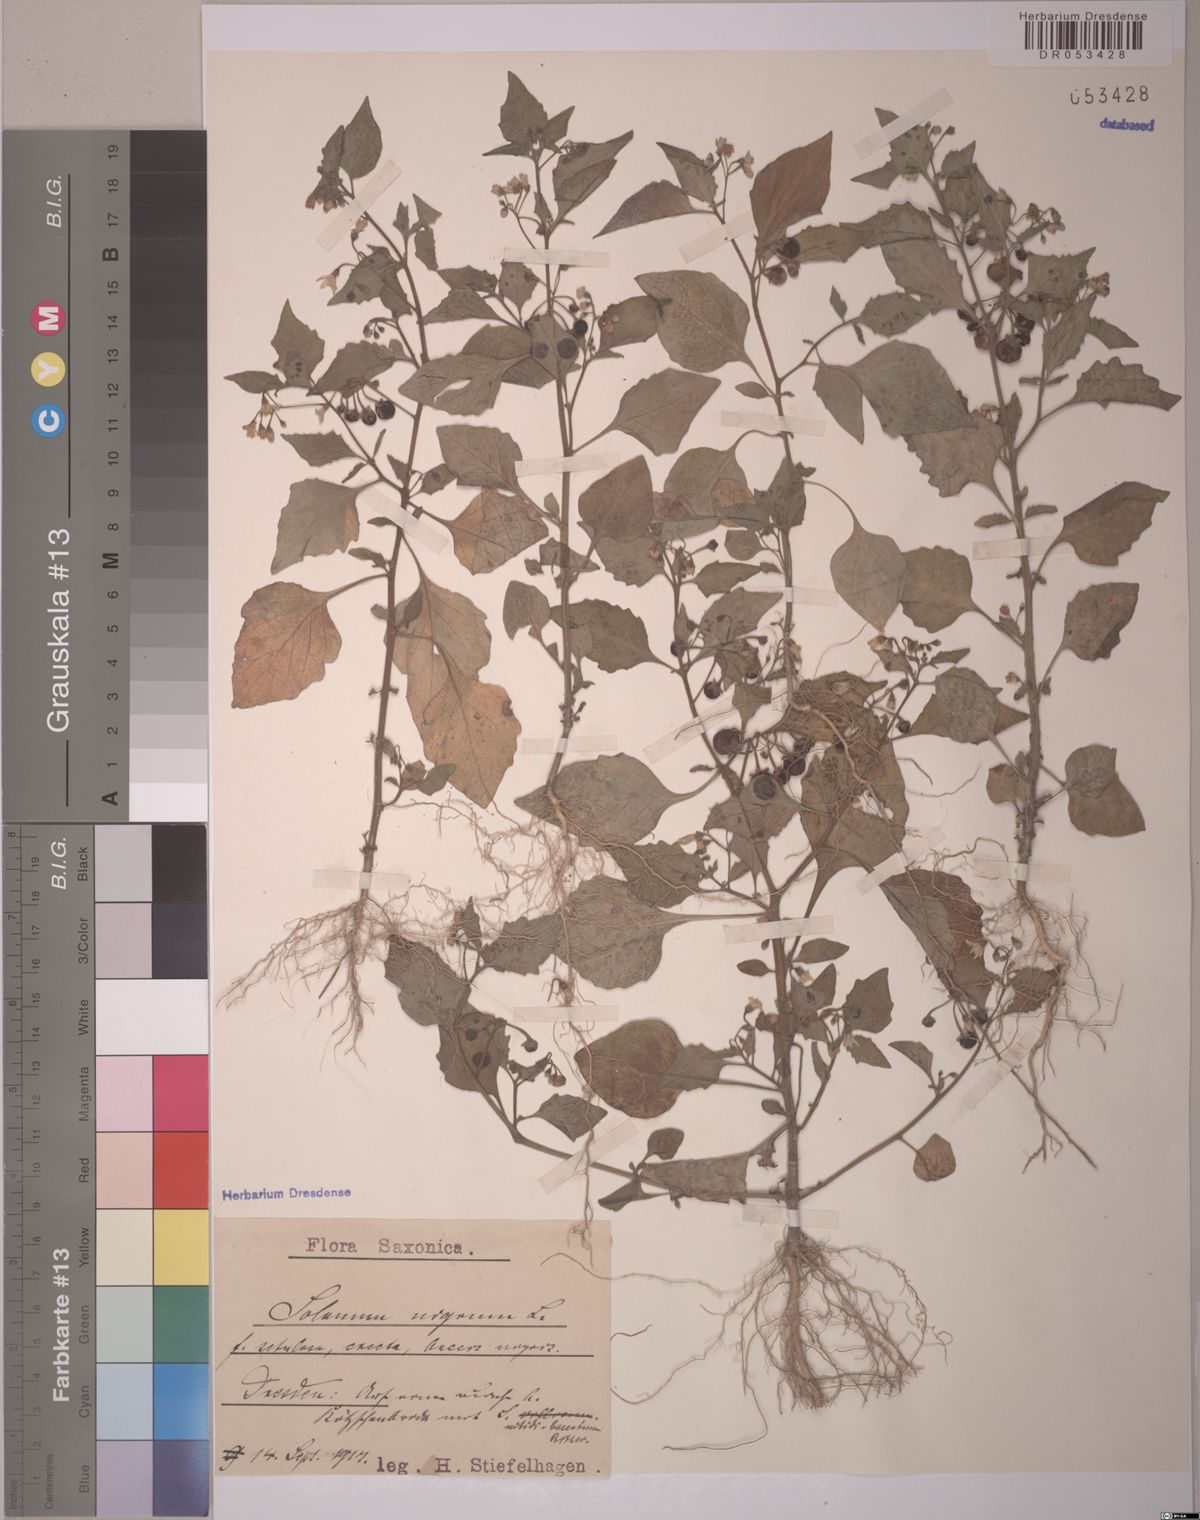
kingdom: Plantae
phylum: Tracheophyta
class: Magnoliopsida
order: Solanales
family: Solanaceae
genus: Solanum
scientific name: Solanum nigrum
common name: Black nightshade
